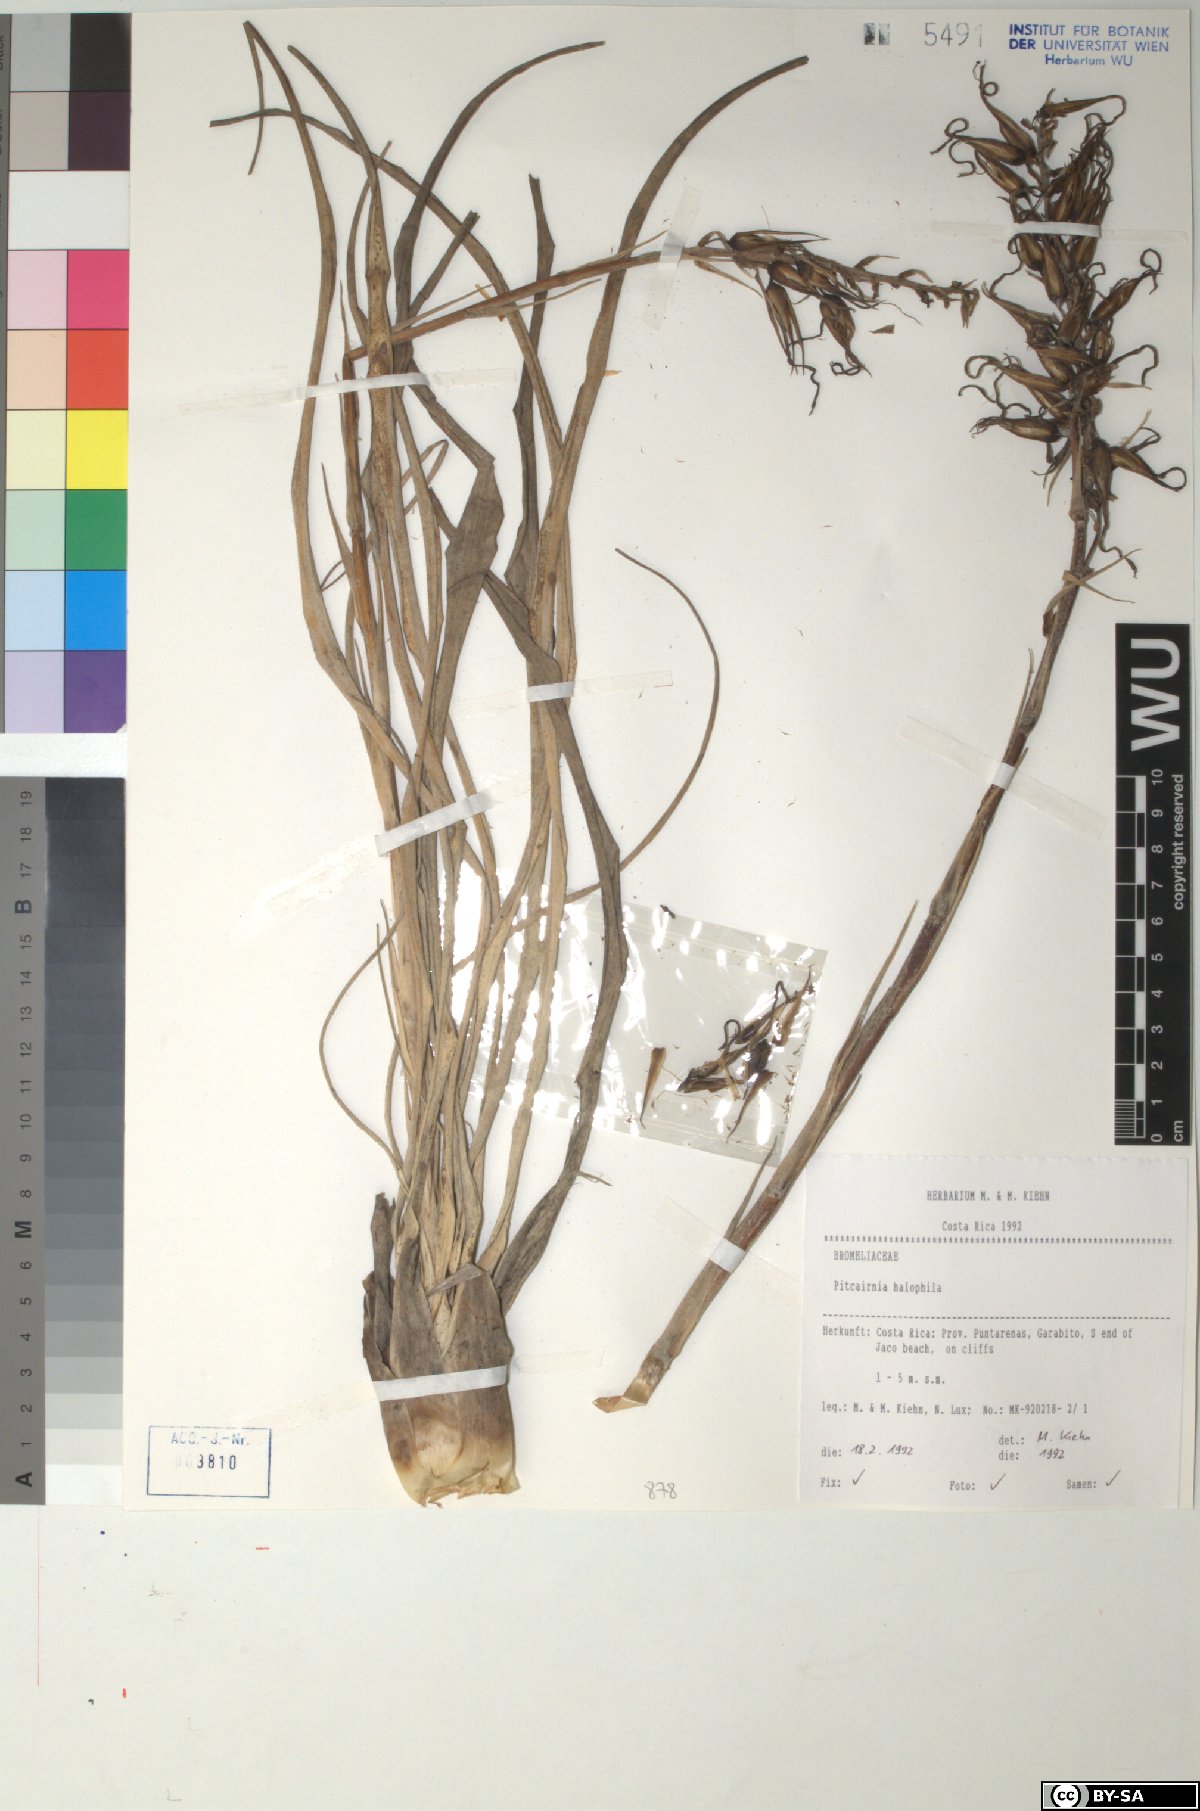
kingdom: Plantae
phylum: Tracheophyta
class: Liliopsida
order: Poales
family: Bromeliaceae
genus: Pitcairnia
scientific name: Pitcairnia halophila
